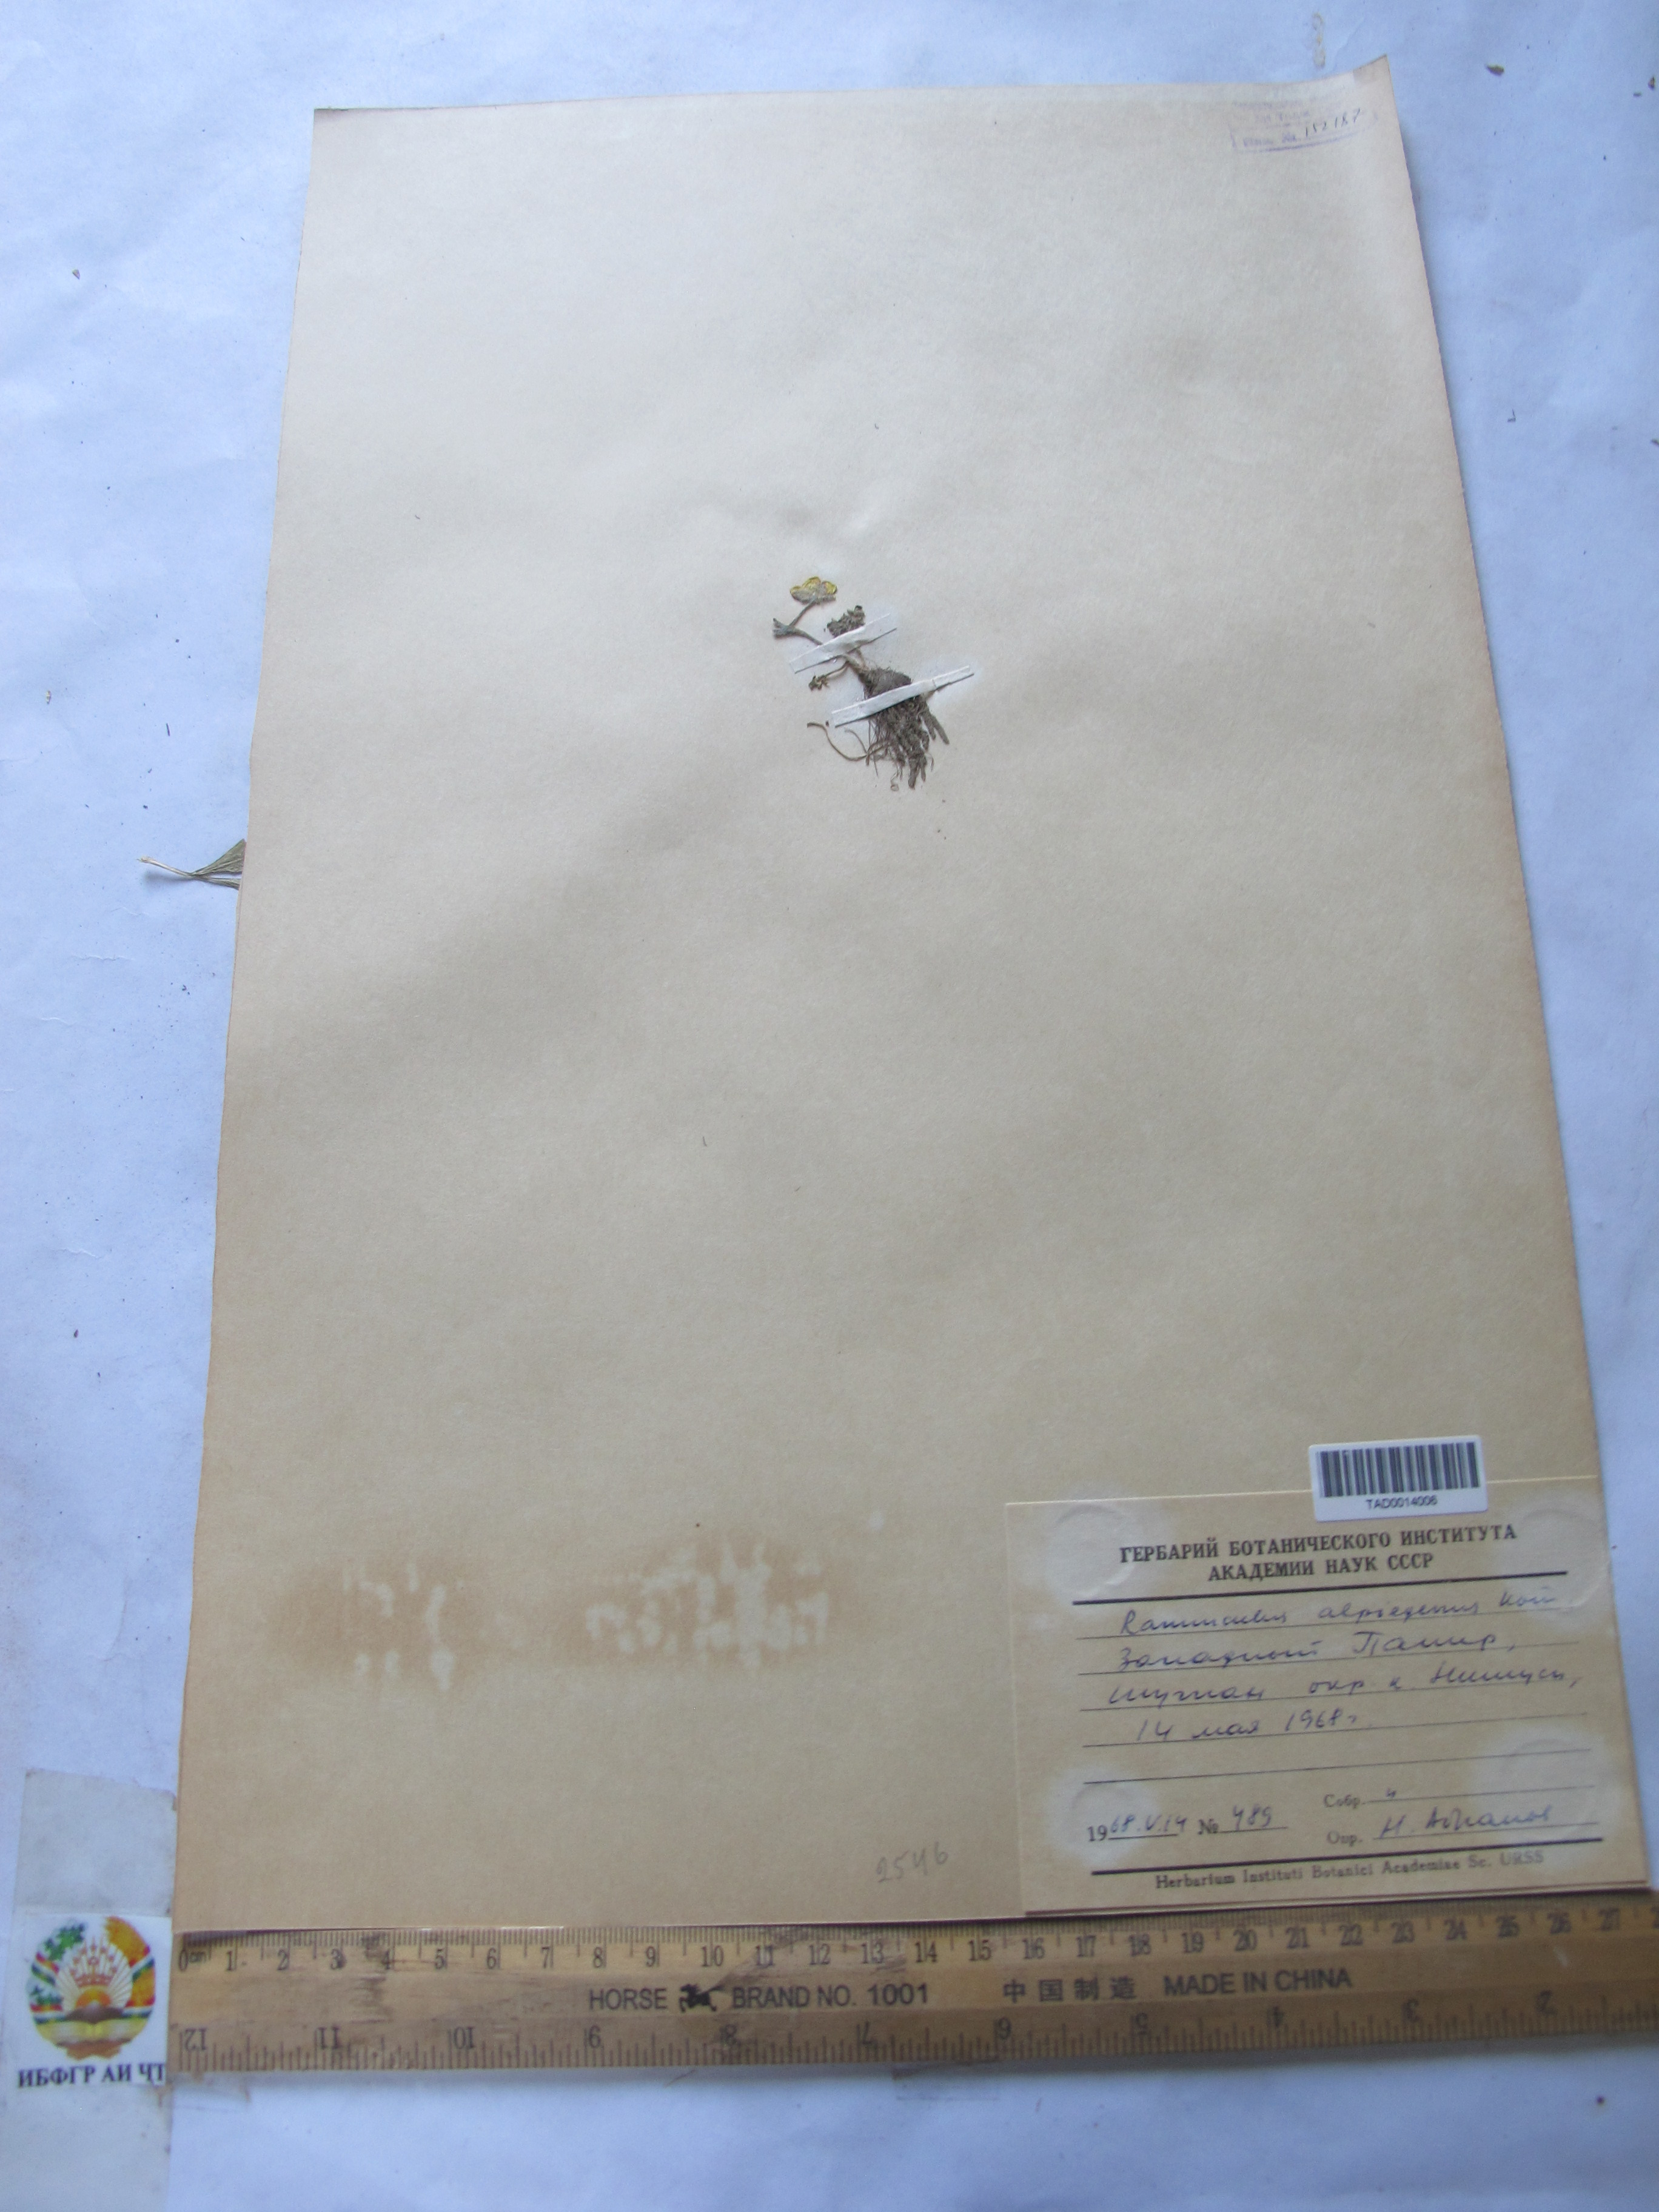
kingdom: Plantae
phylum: Tracheophyta
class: Magnoliopsida
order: Ranunculales
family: Ranunculaceae
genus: Ranunculus
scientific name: Ranunculus alpigenus
